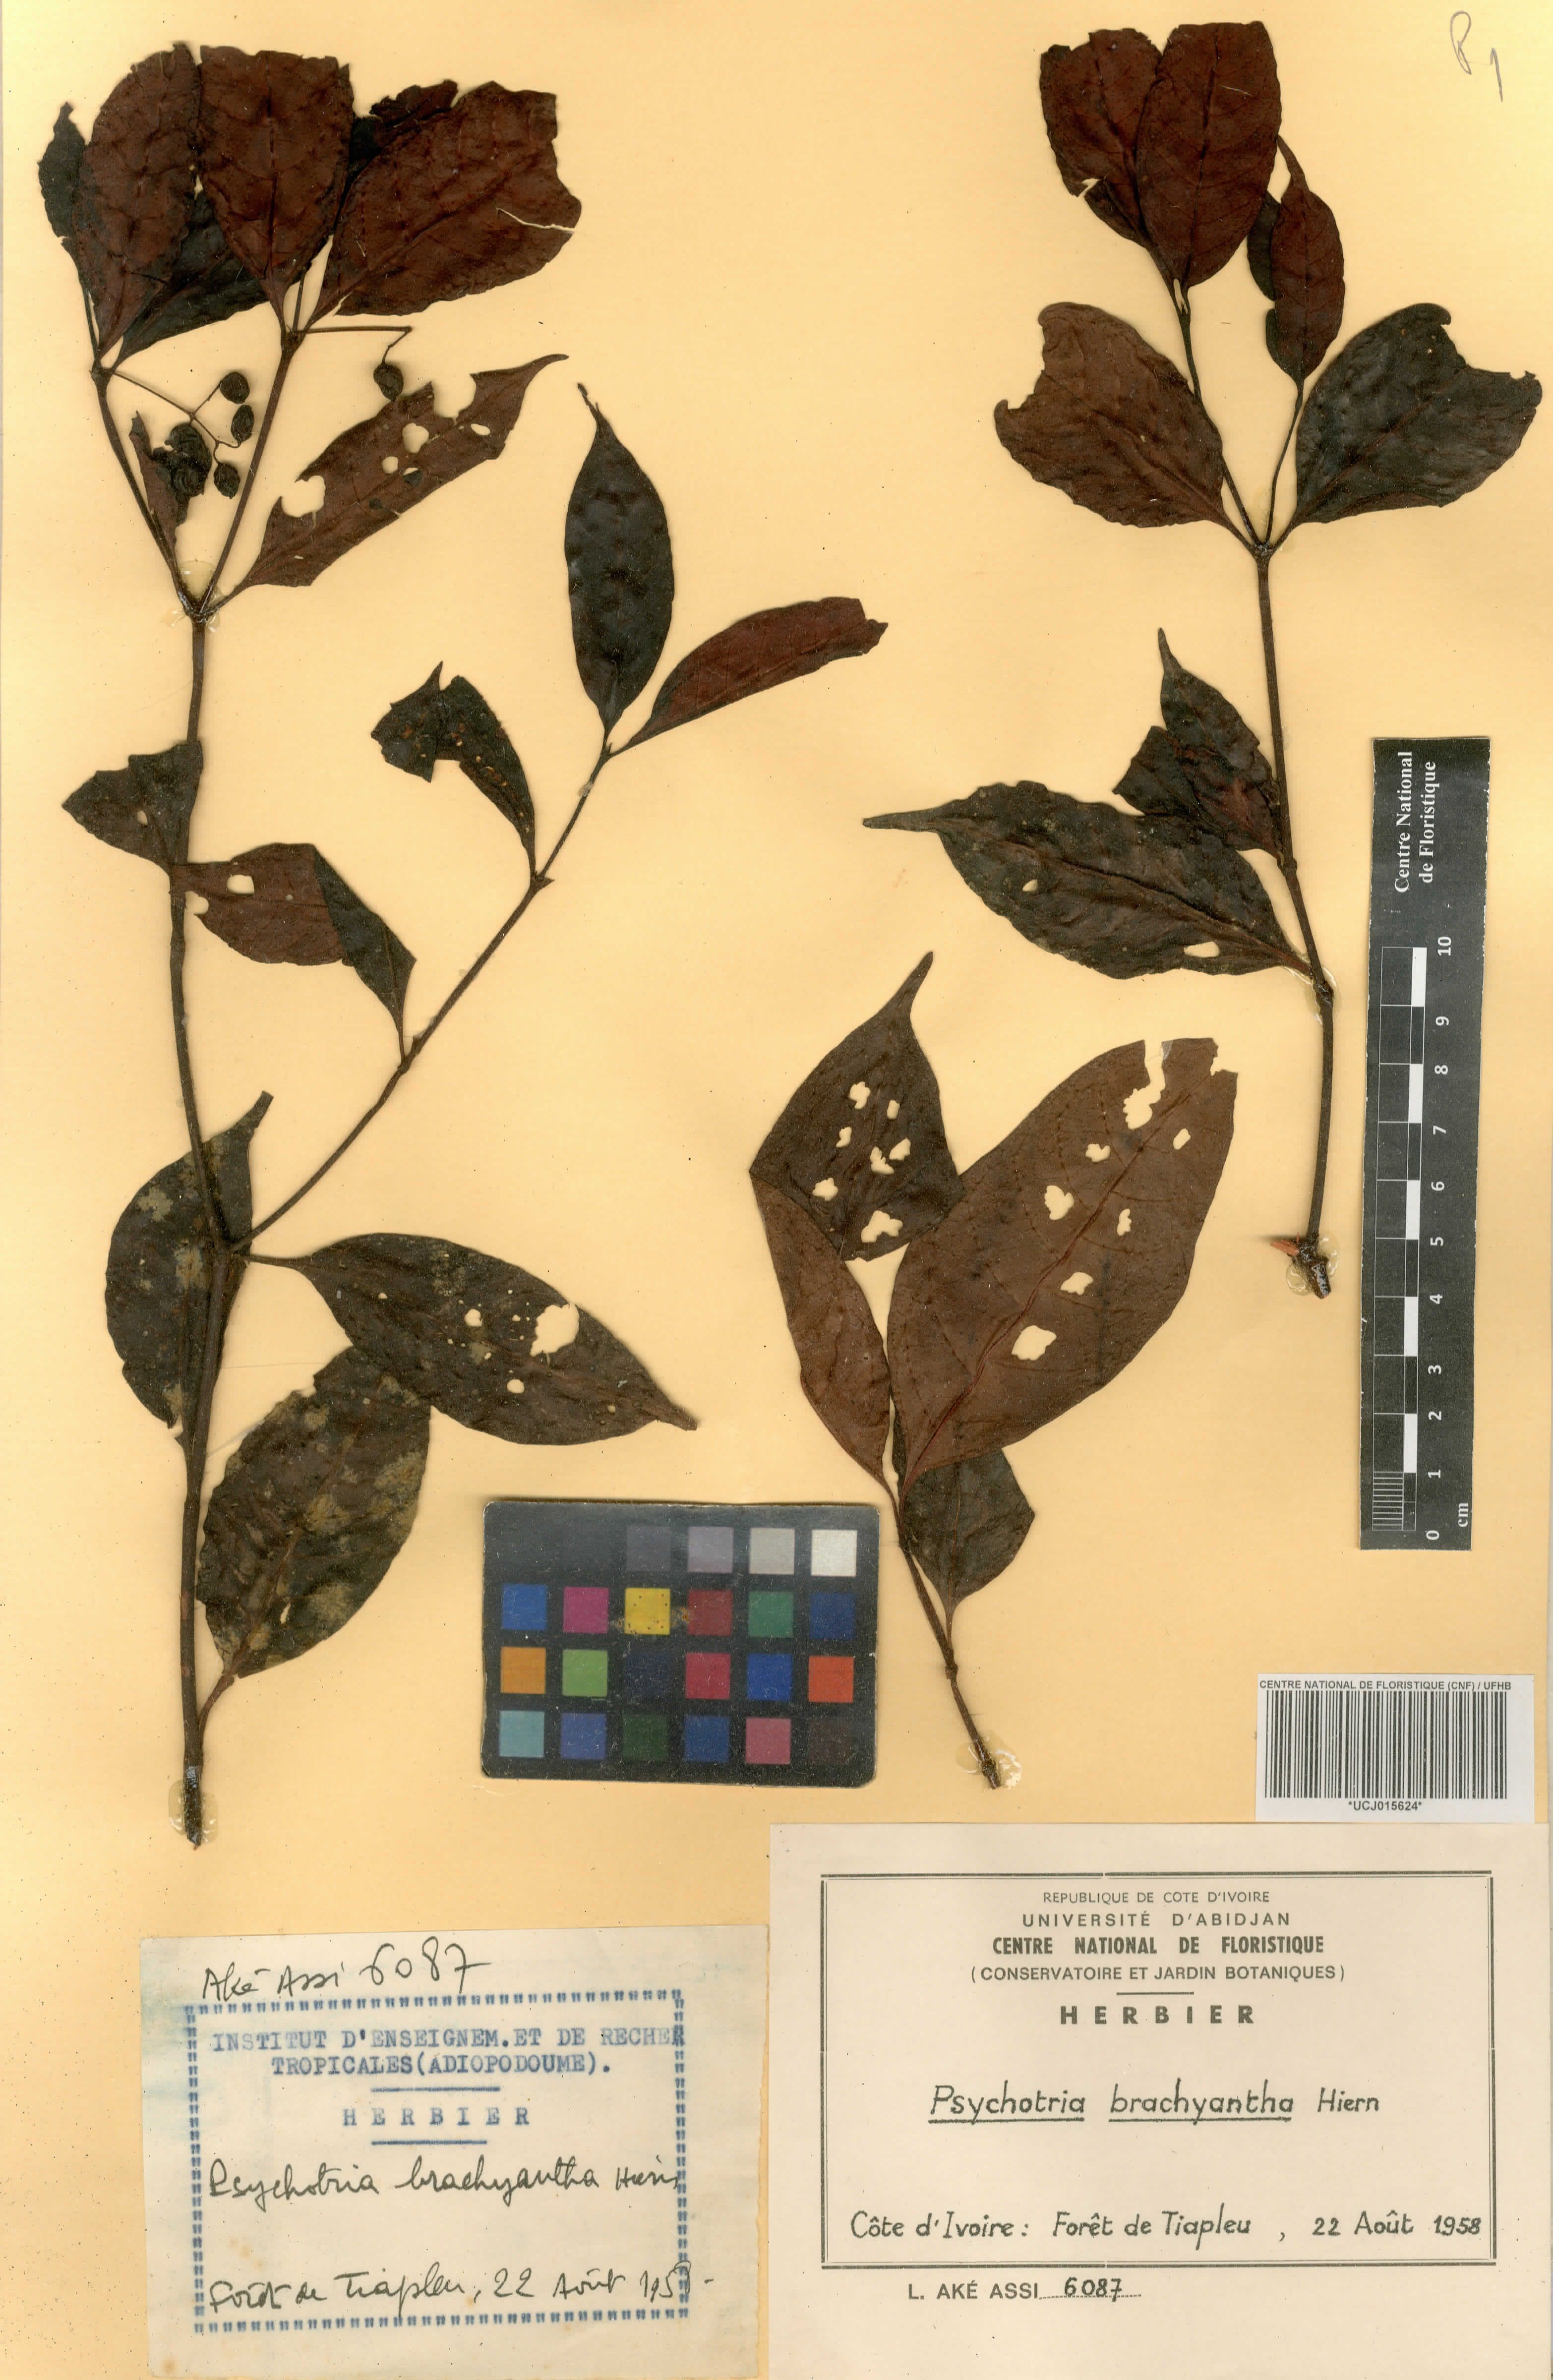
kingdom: Plantae
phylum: Tracheophyta
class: Magnoliopsida
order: Gentianales
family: Rubiaceae
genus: Psychotria
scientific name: Psychotria brachyantha
